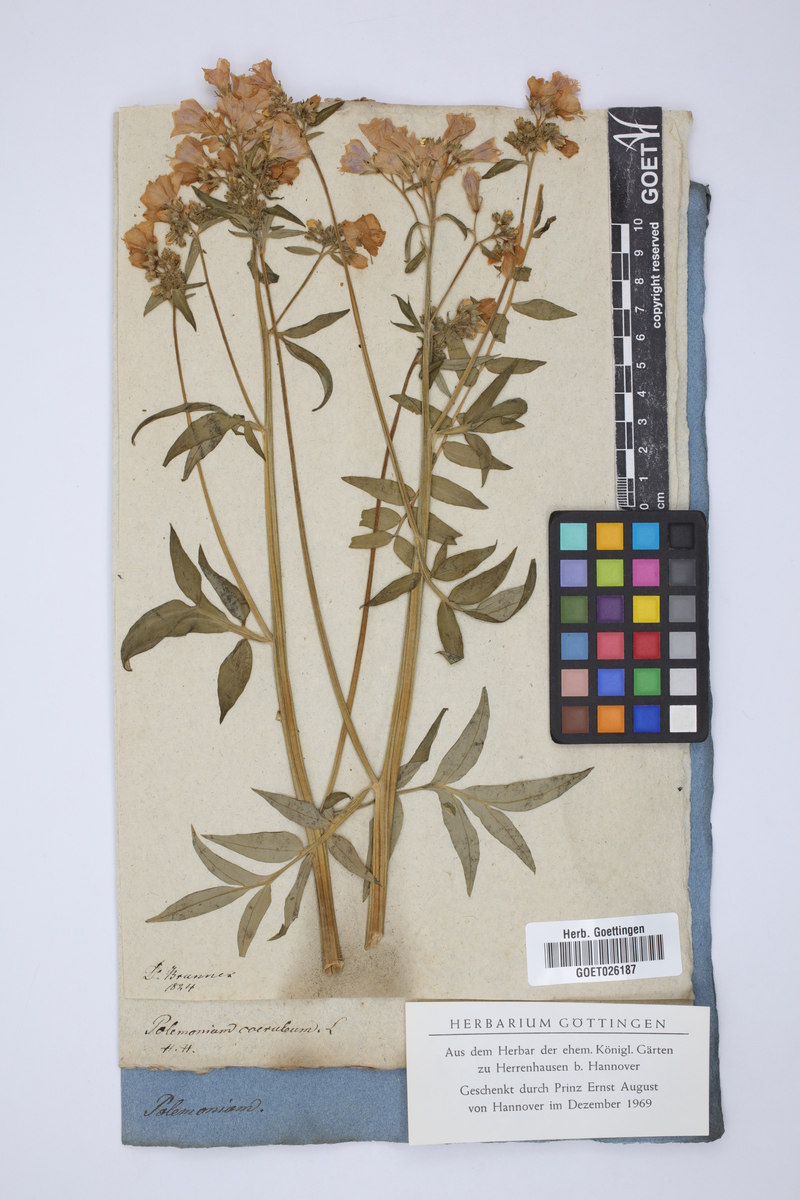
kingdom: Plantae
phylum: Tracheophyta
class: Magnoliopsida
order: Ericales
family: Polemoniaceae
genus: Polemonium
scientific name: Polemonium caeruleum
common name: Jacob's-ladder
